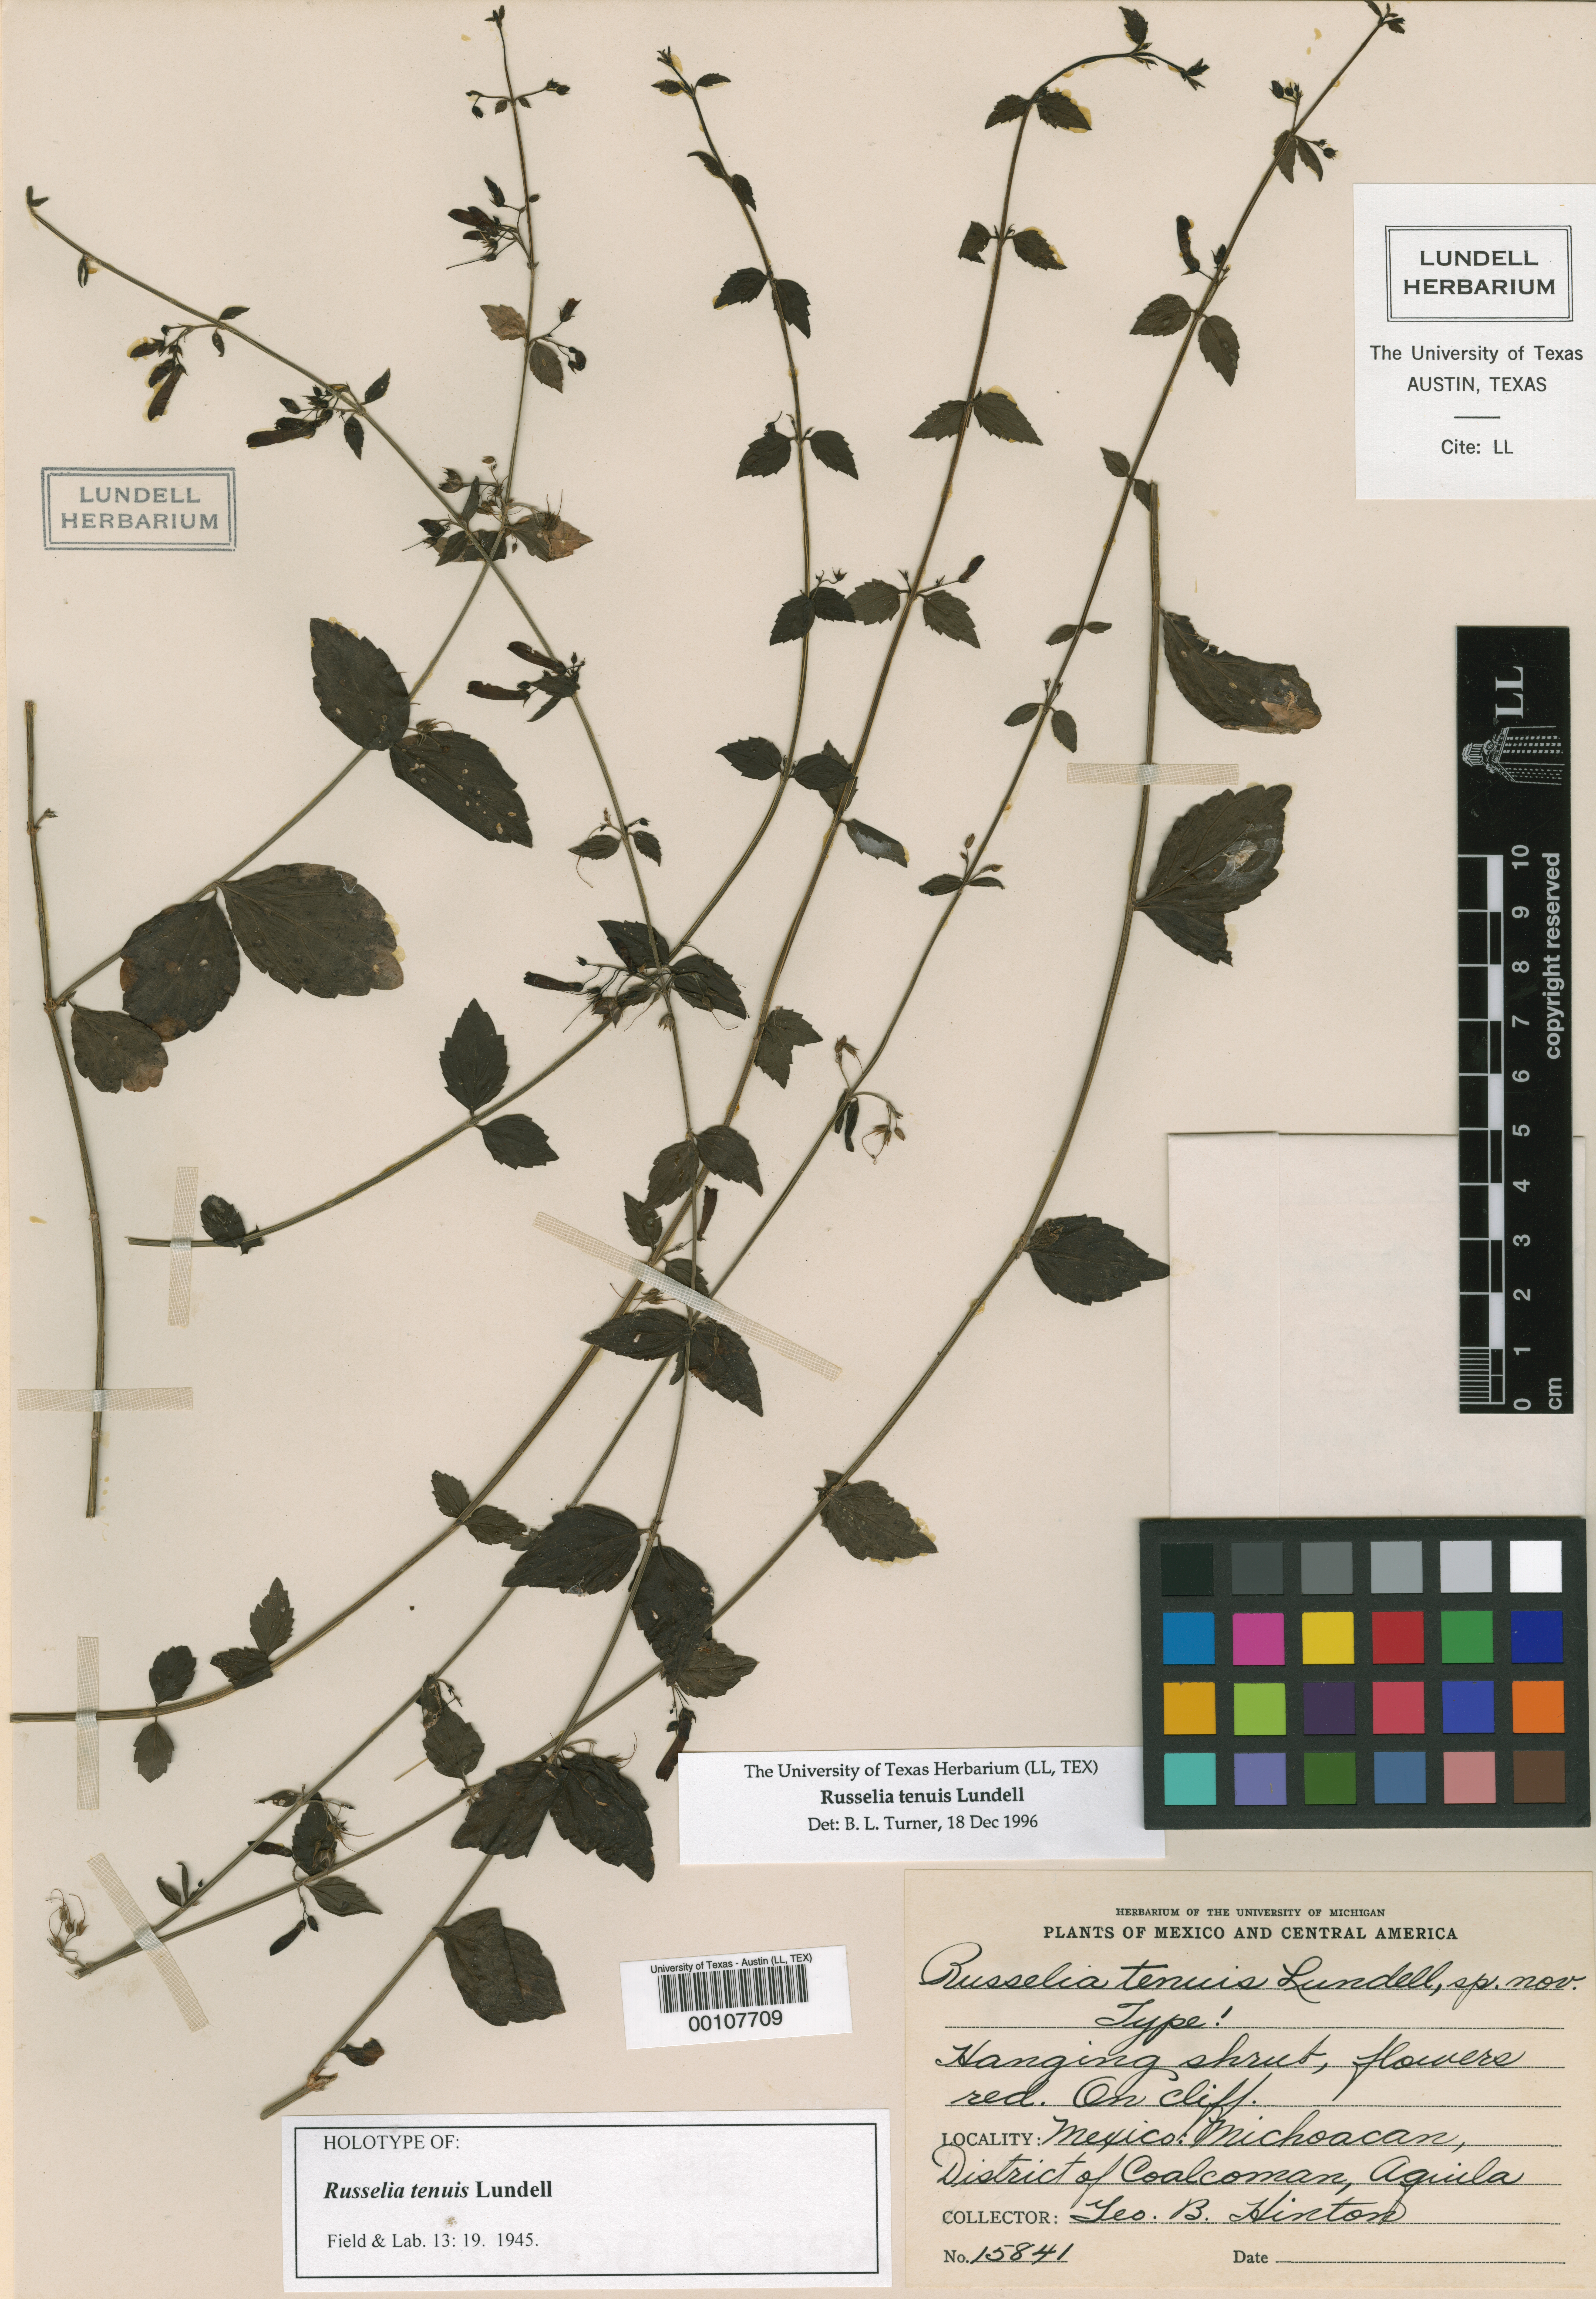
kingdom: Plantae
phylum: Tracheophyta
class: Magnoliopsida
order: Lamiales
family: Plantaginaceae
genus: Russelia
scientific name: Russelia tenuis
